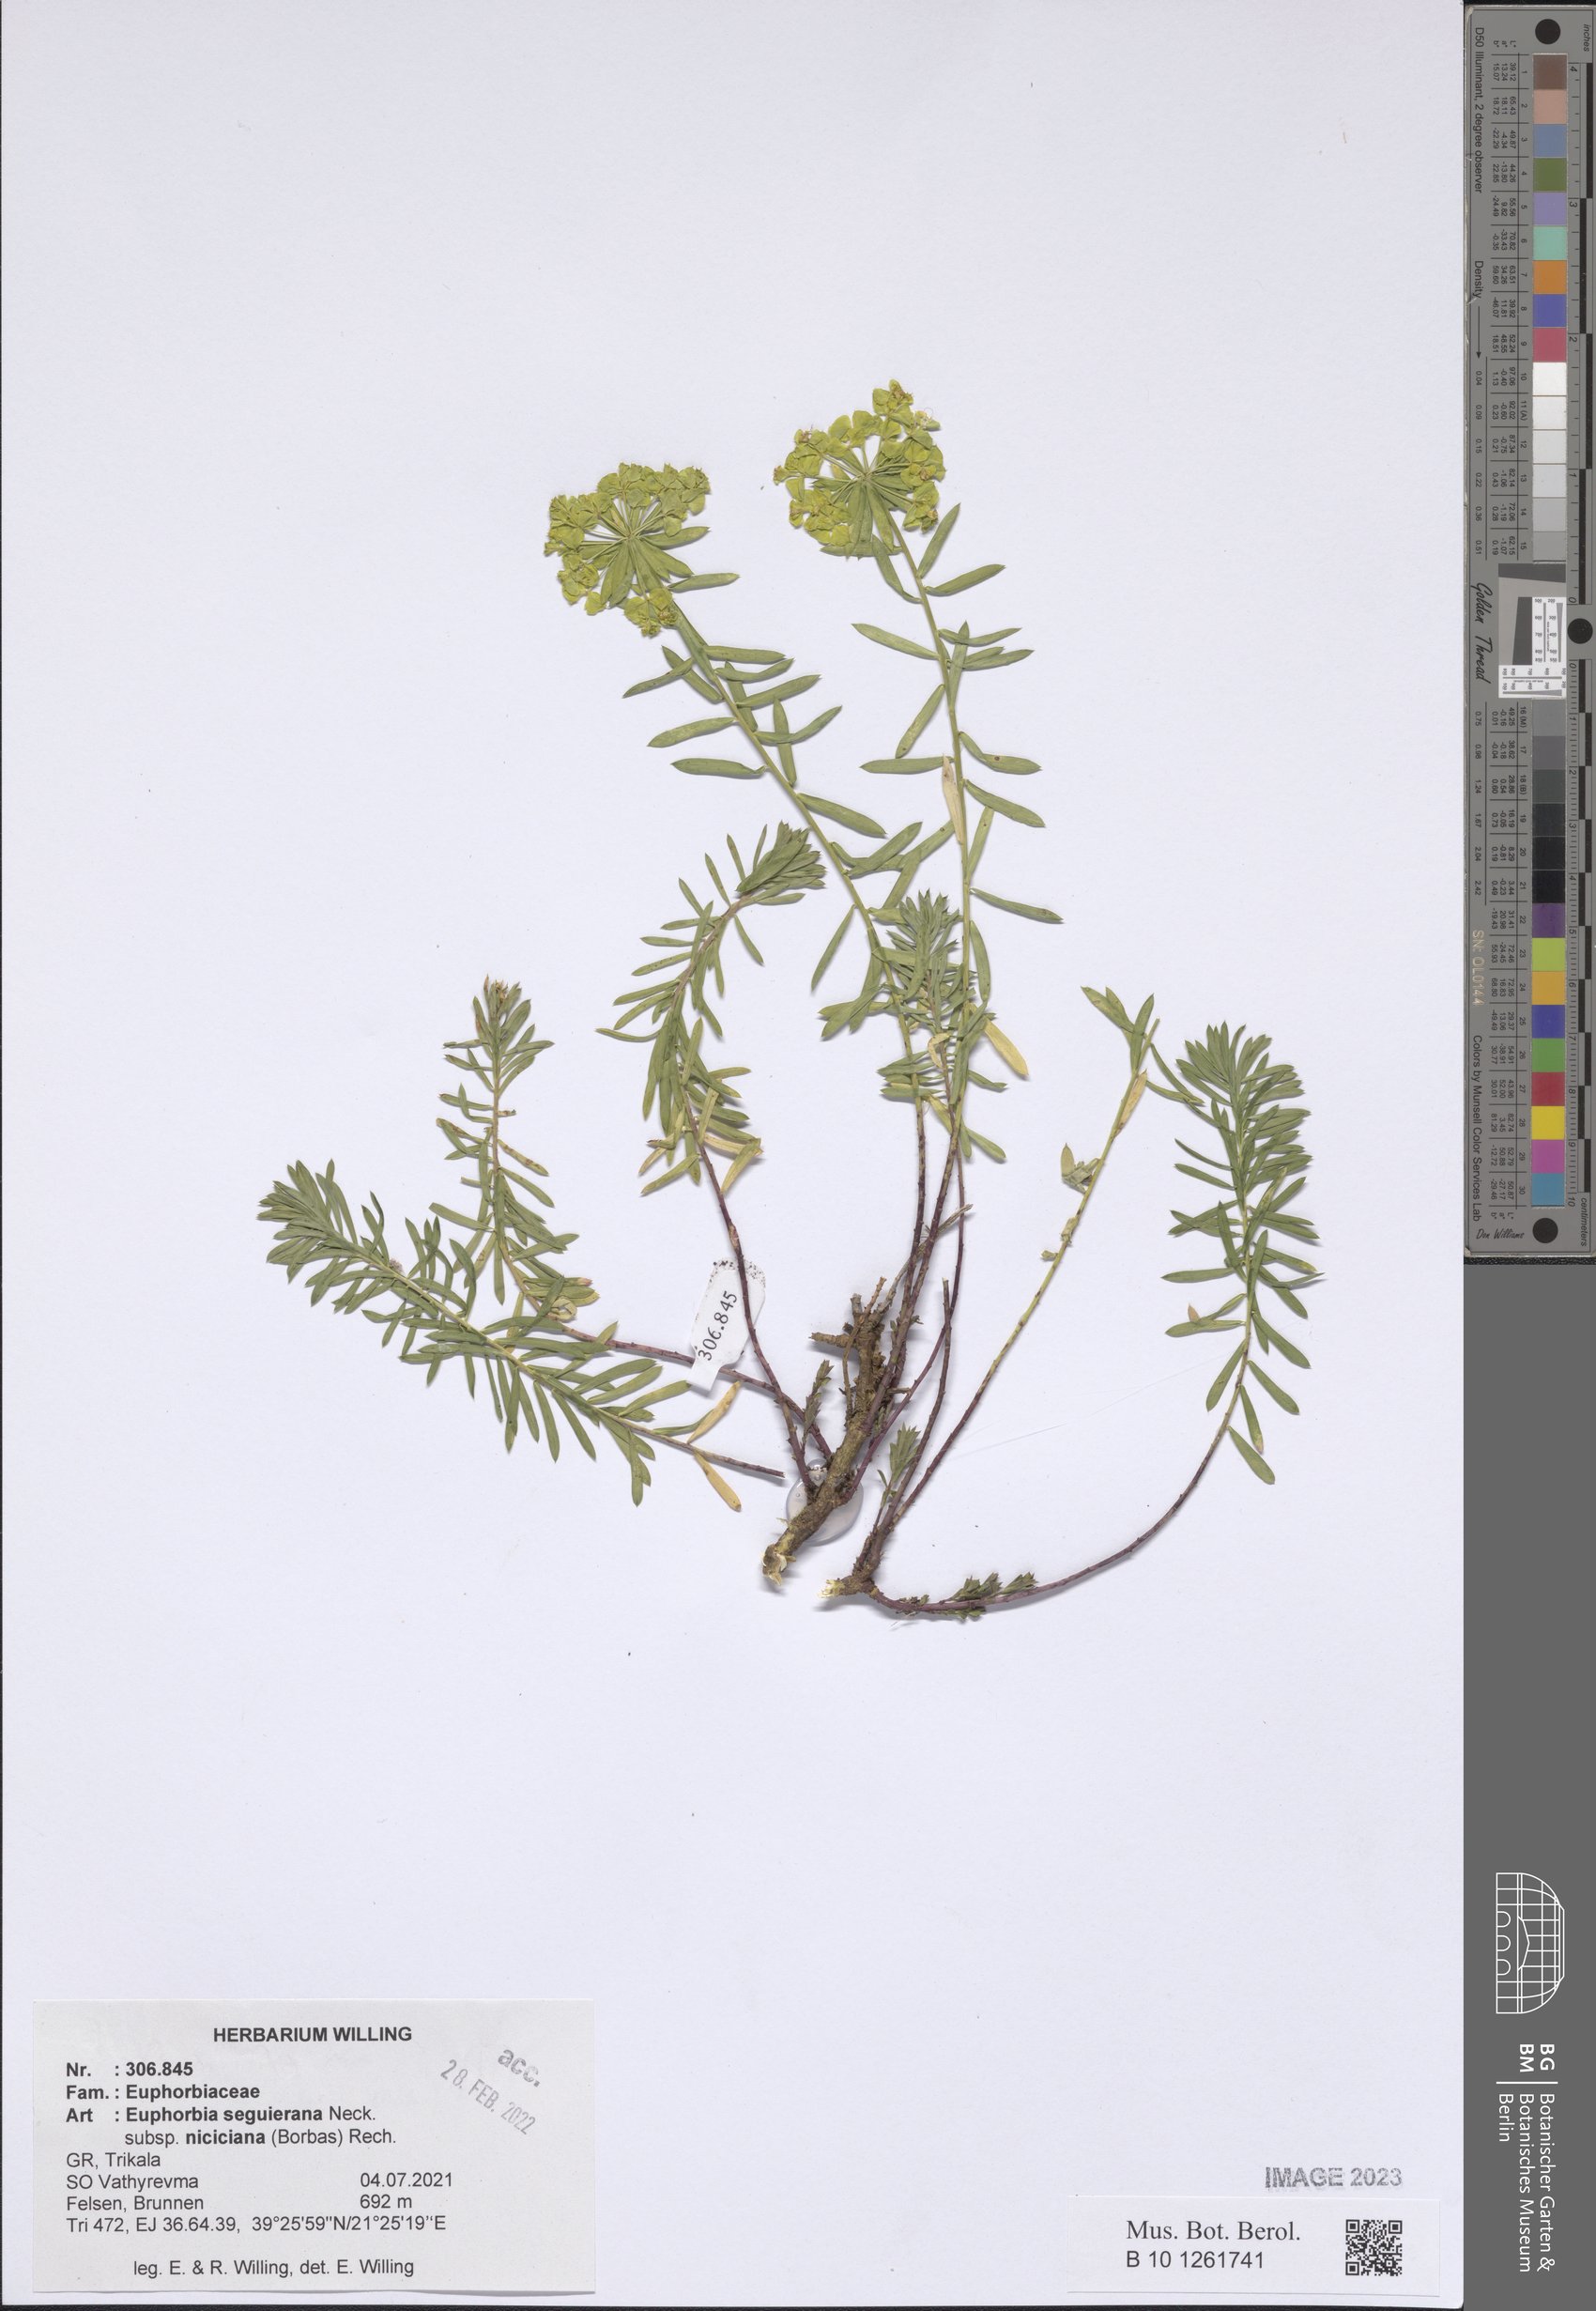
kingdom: Plantae
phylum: Tracheophyta
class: Magnoliopsida
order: Malpighiales
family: Euphorbiaceae
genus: Euphorbia
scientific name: Euphorbia seguieriana
